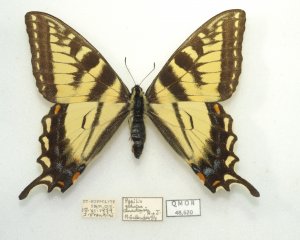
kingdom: Animalia
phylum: Arthropoda
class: Insecta
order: Lepidoptera
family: Papilionidae
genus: Pterourus
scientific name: Pterourus canadensis
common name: Canadian Tiger Swallowtail
